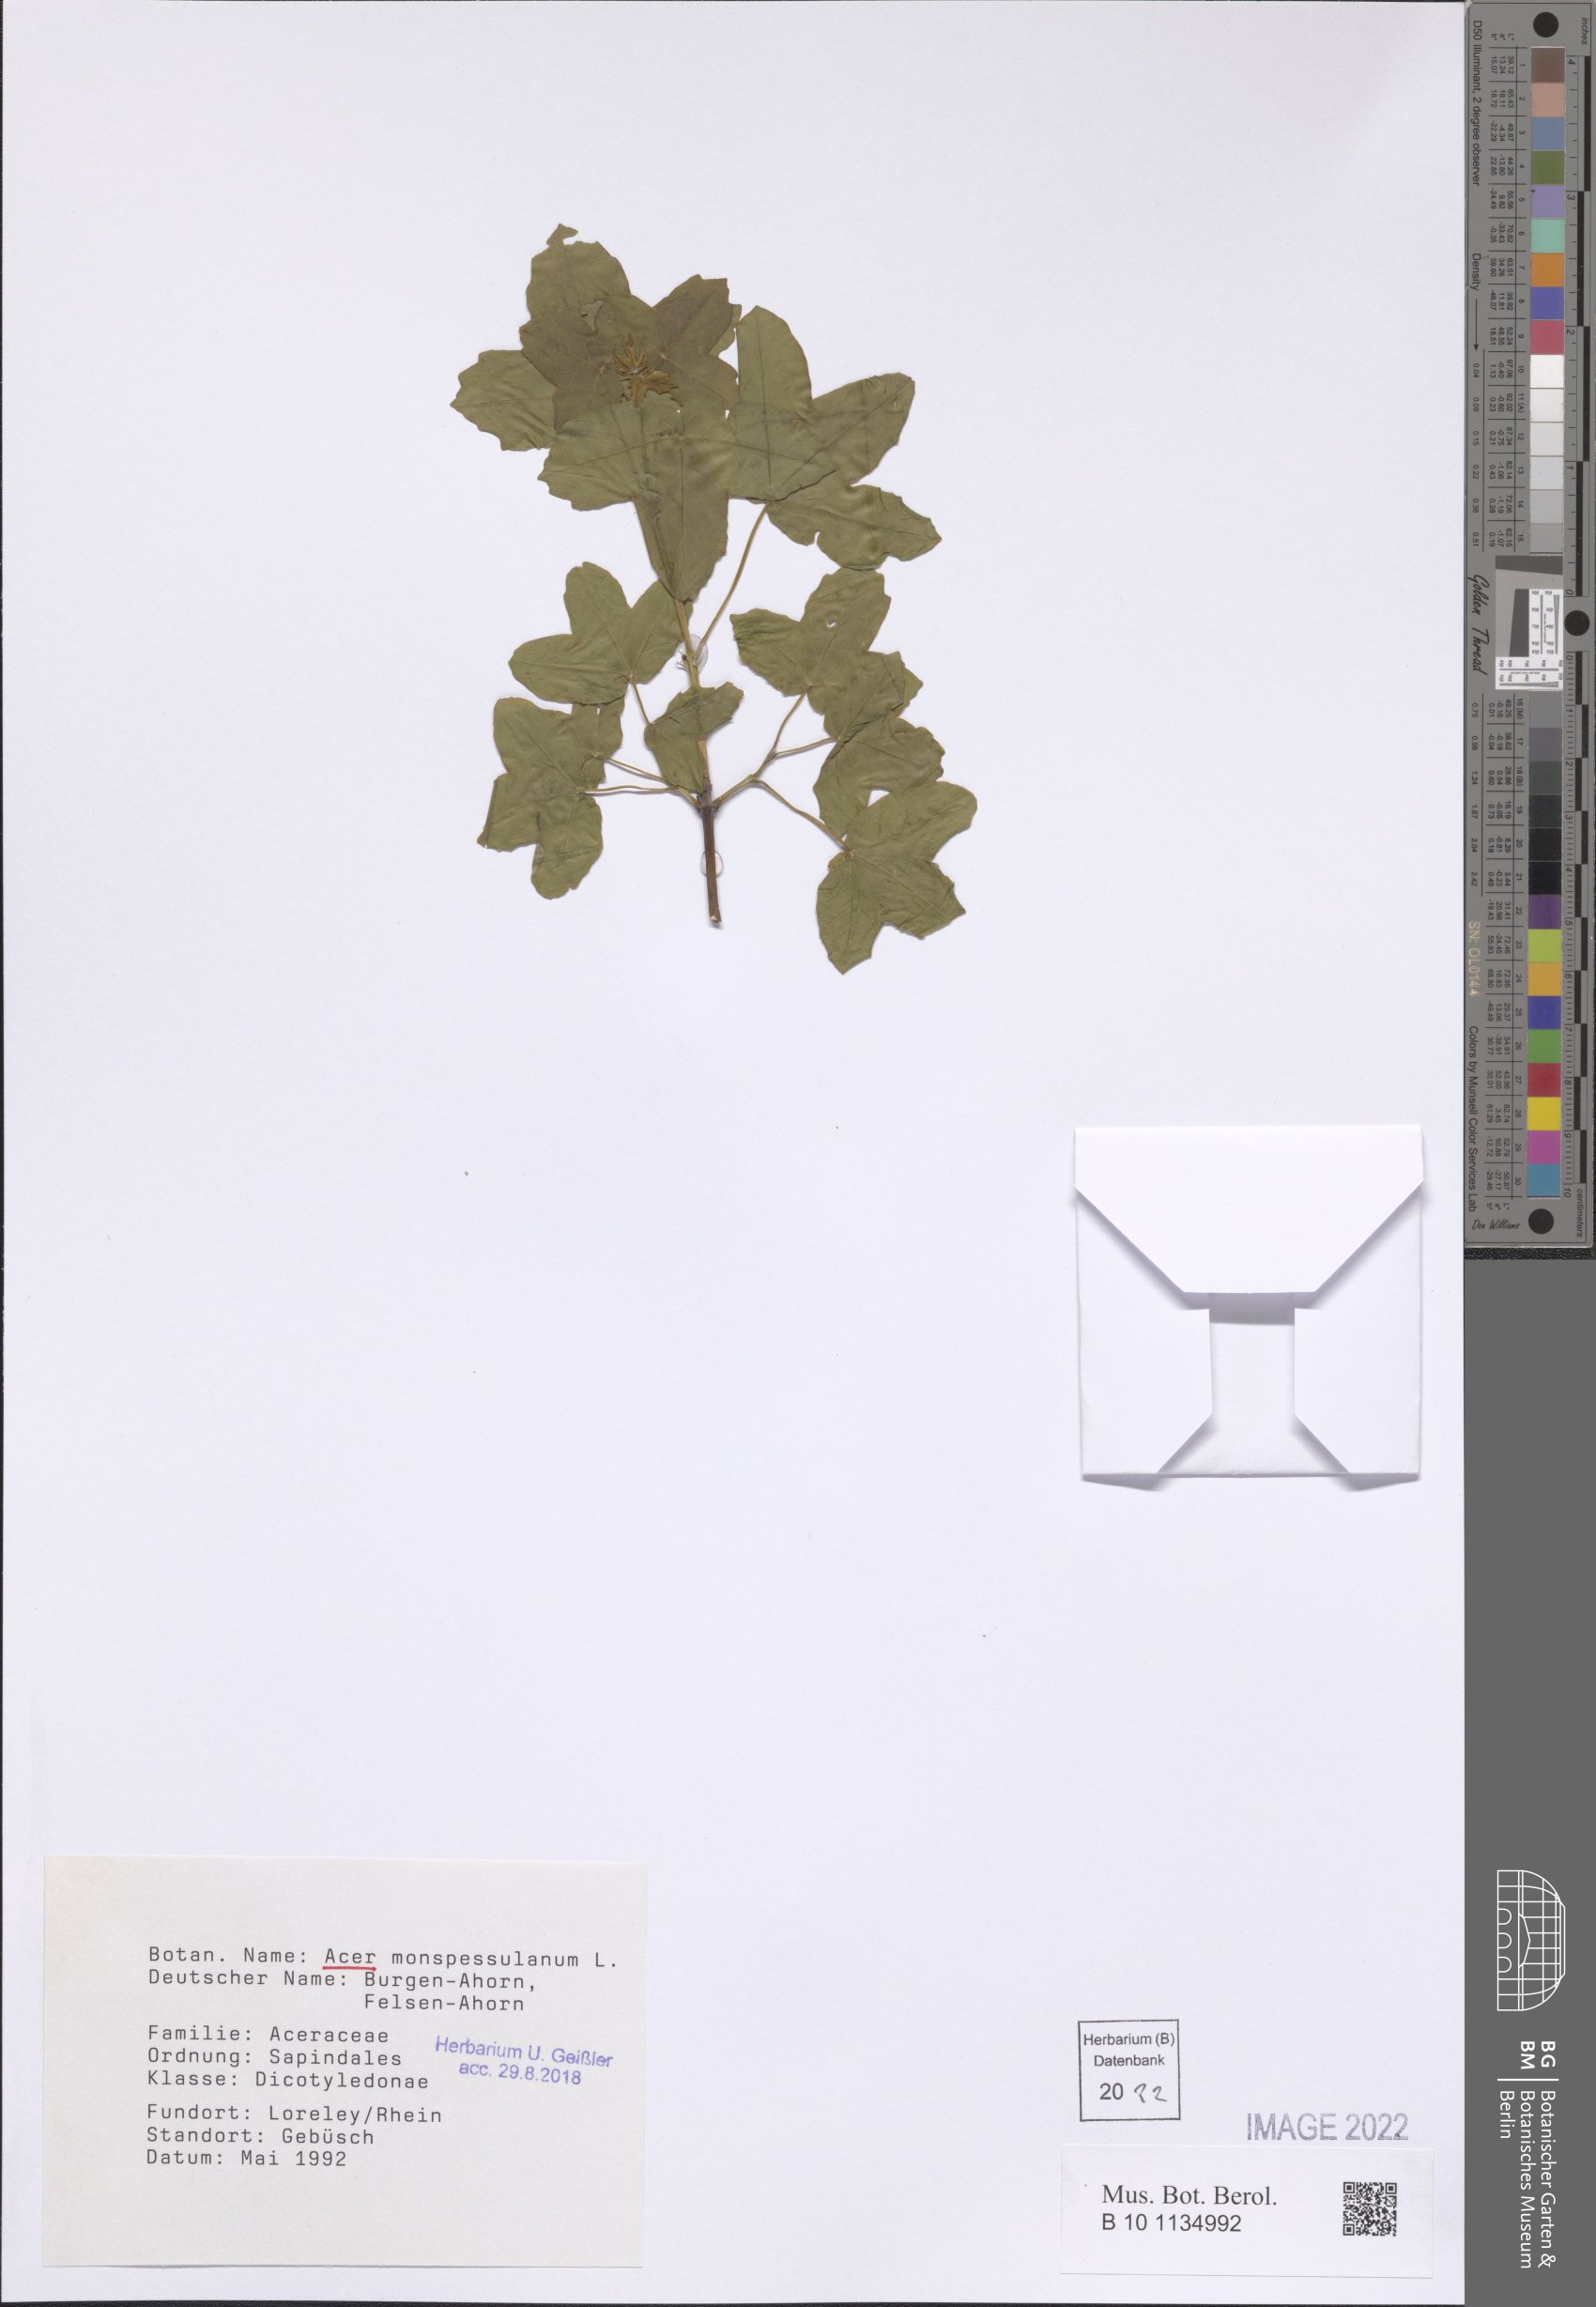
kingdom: Plantae
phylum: Tracheophyta
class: Magnoliopsida
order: Sapindales
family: Sapindaceae
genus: Acer
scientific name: Acer negundo
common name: Ashleaf maple
